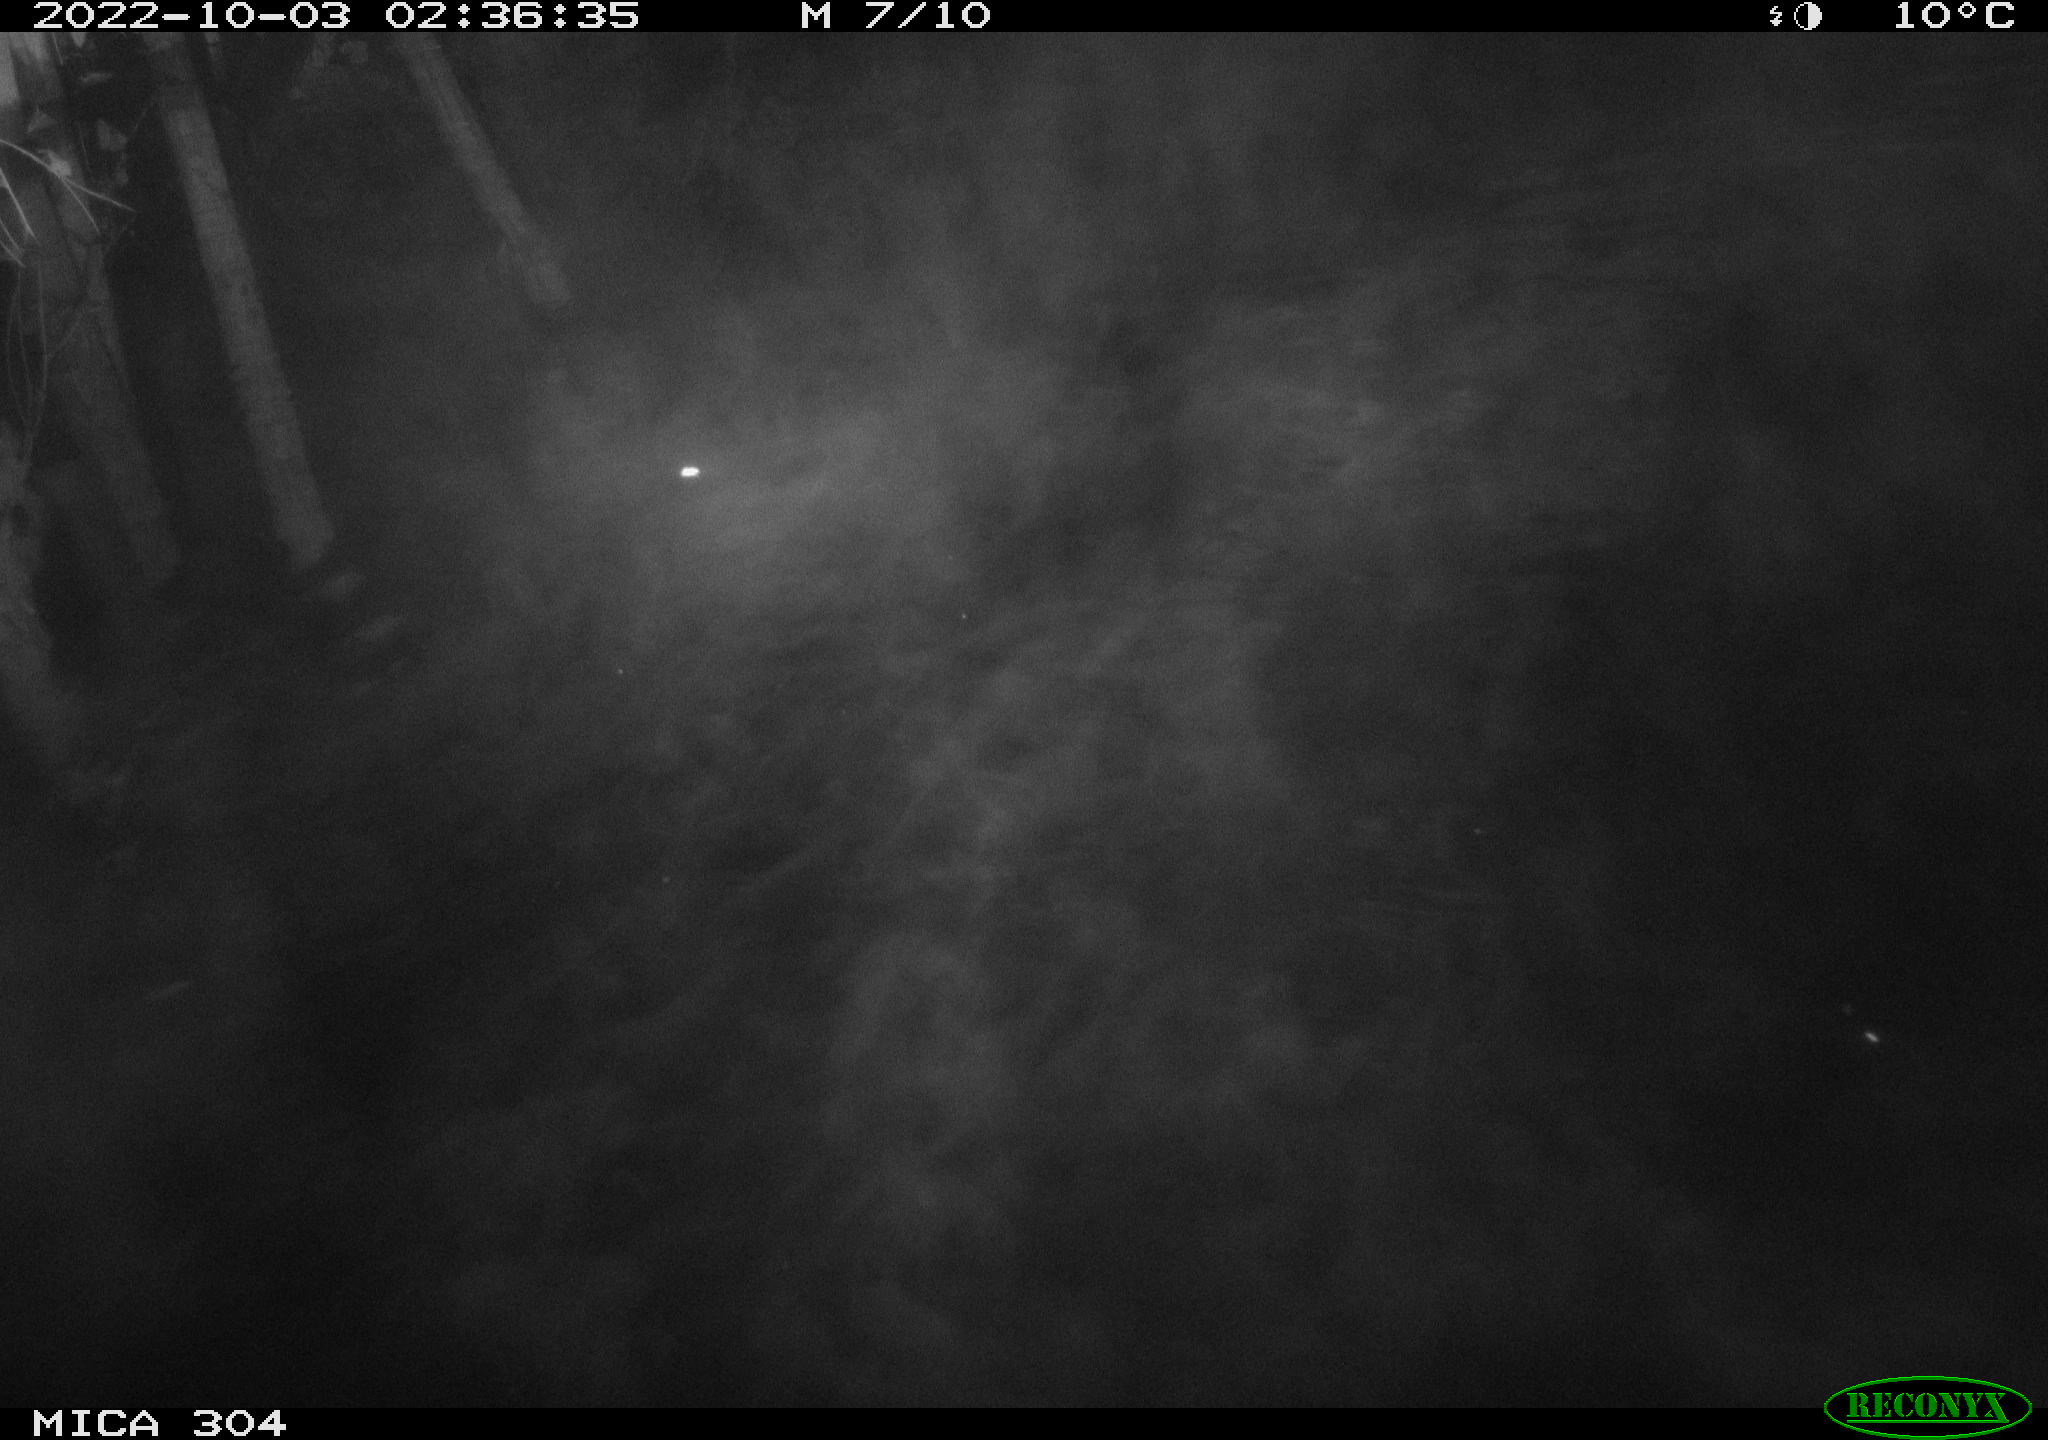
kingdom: Animalia
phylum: Chordata
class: Mammalia
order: Rodentia
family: Muridae
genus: Rattus
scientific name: Rattus norvegicus
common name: Brown rat
